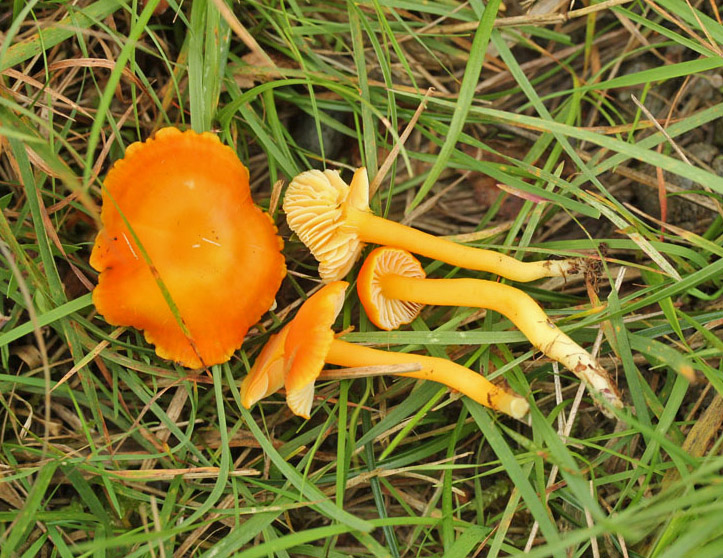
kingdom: Fungi
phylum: Basidiomycota
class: Agaricomycetes
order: Agaricales
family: Hygrophoraceae
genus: Cuphophyllus
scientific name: Cuphophyllus pratensis
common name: eng-vokshat
